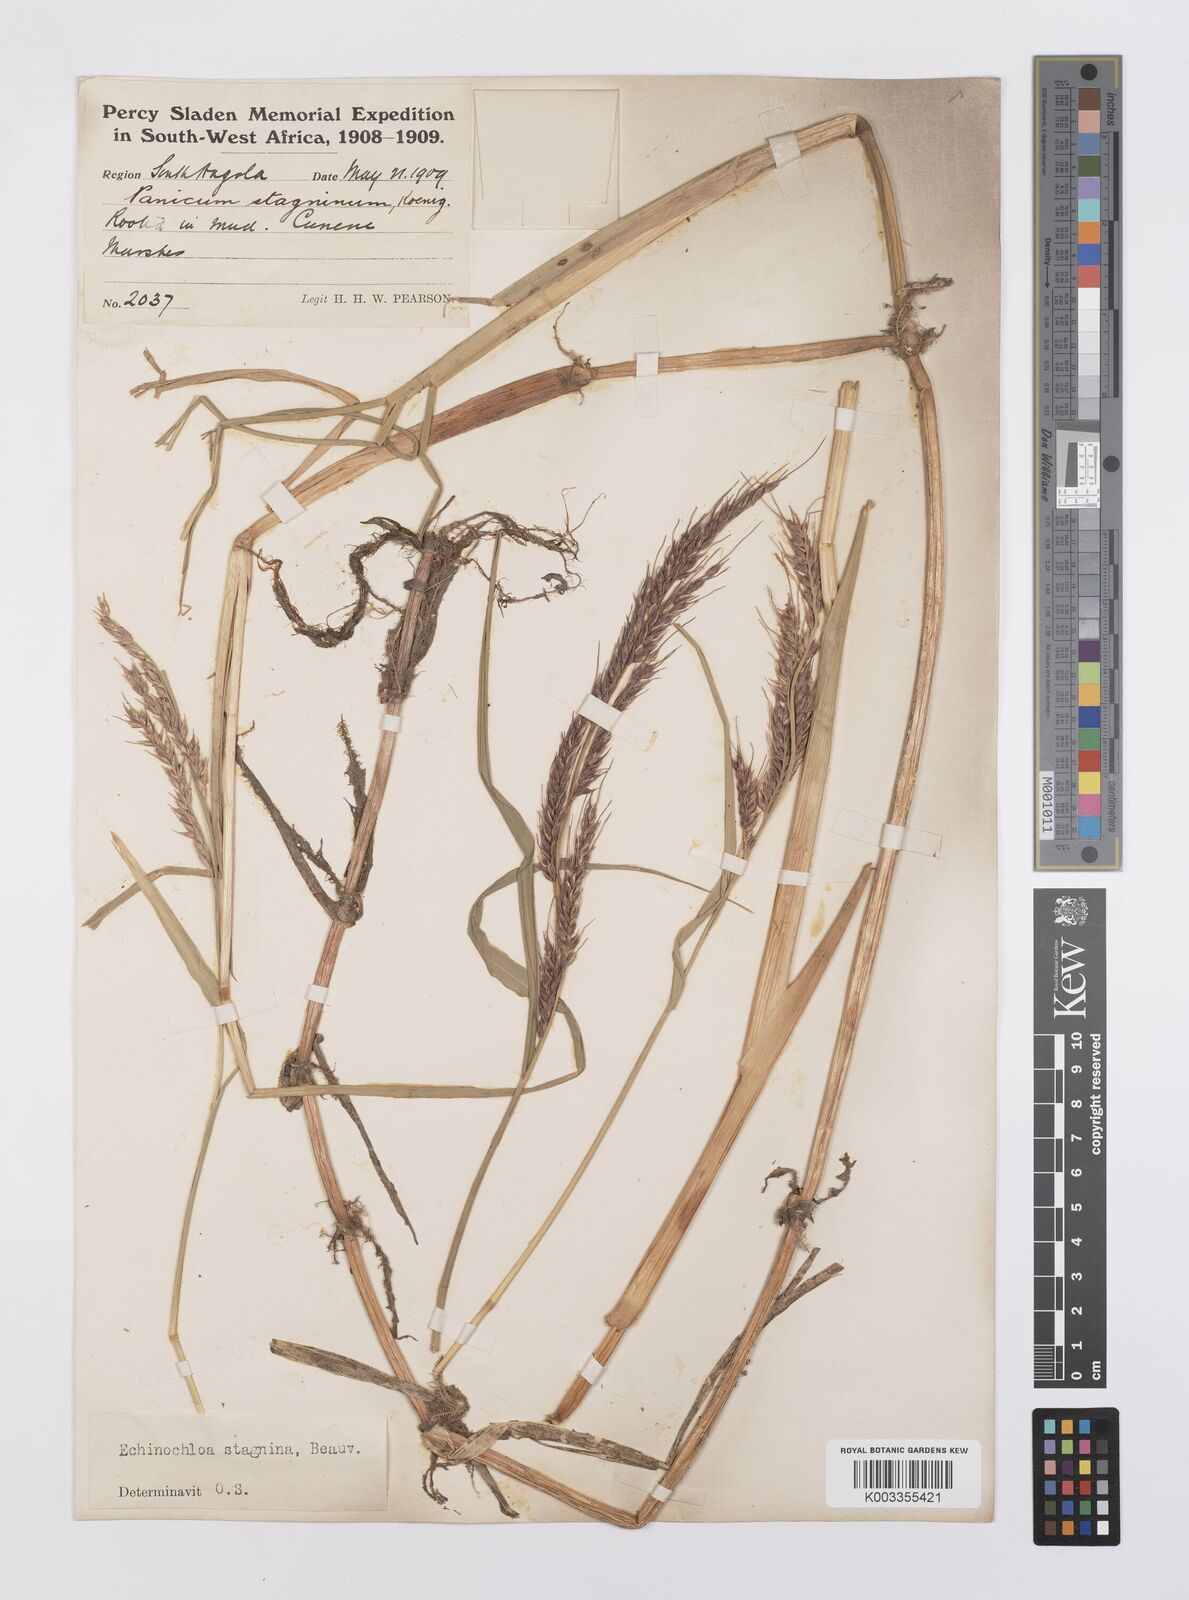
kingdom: Plantae
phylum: Tracheophyta
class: Liliopsida
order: Poales
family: Poaceae
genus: Echinochloa
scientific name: Echinochloa stagnina
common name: Burgu grass
